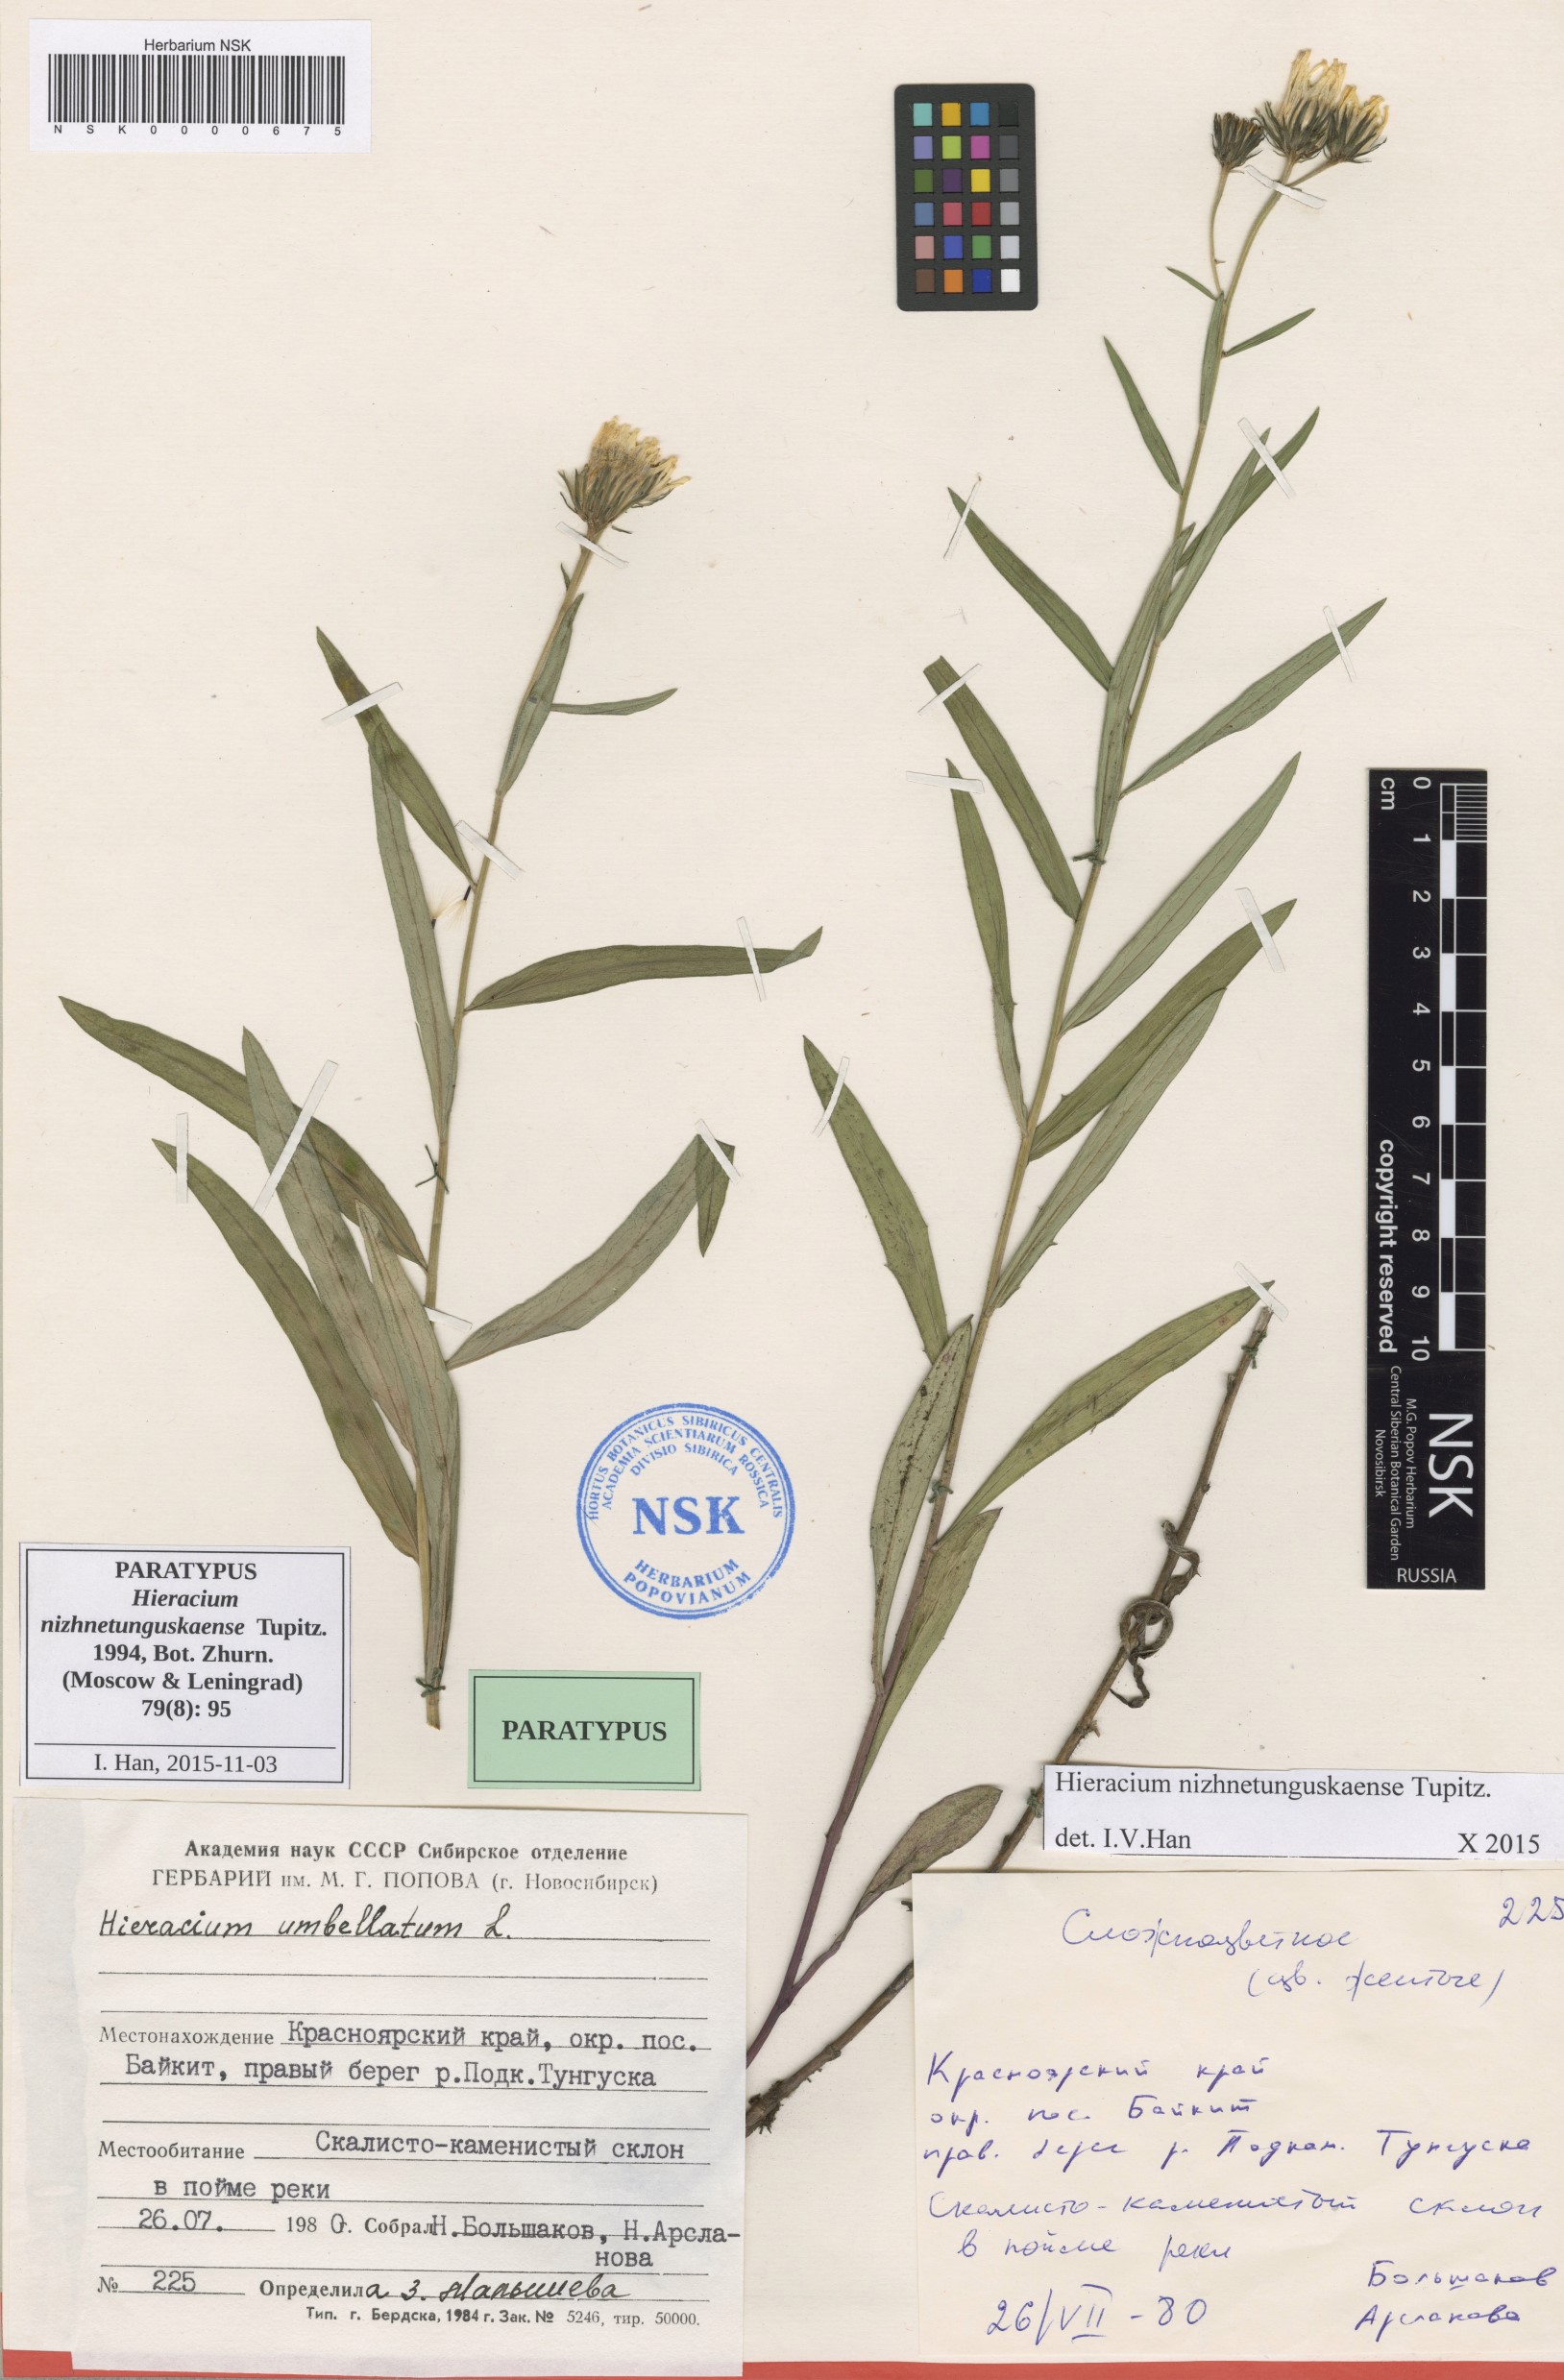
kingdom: Plantae
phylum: Tracheophyta
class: Magnoliopsida
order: Asterales
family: Asteraceae
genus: Hieracium
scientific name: Hieracium nizhnetunguskaense
